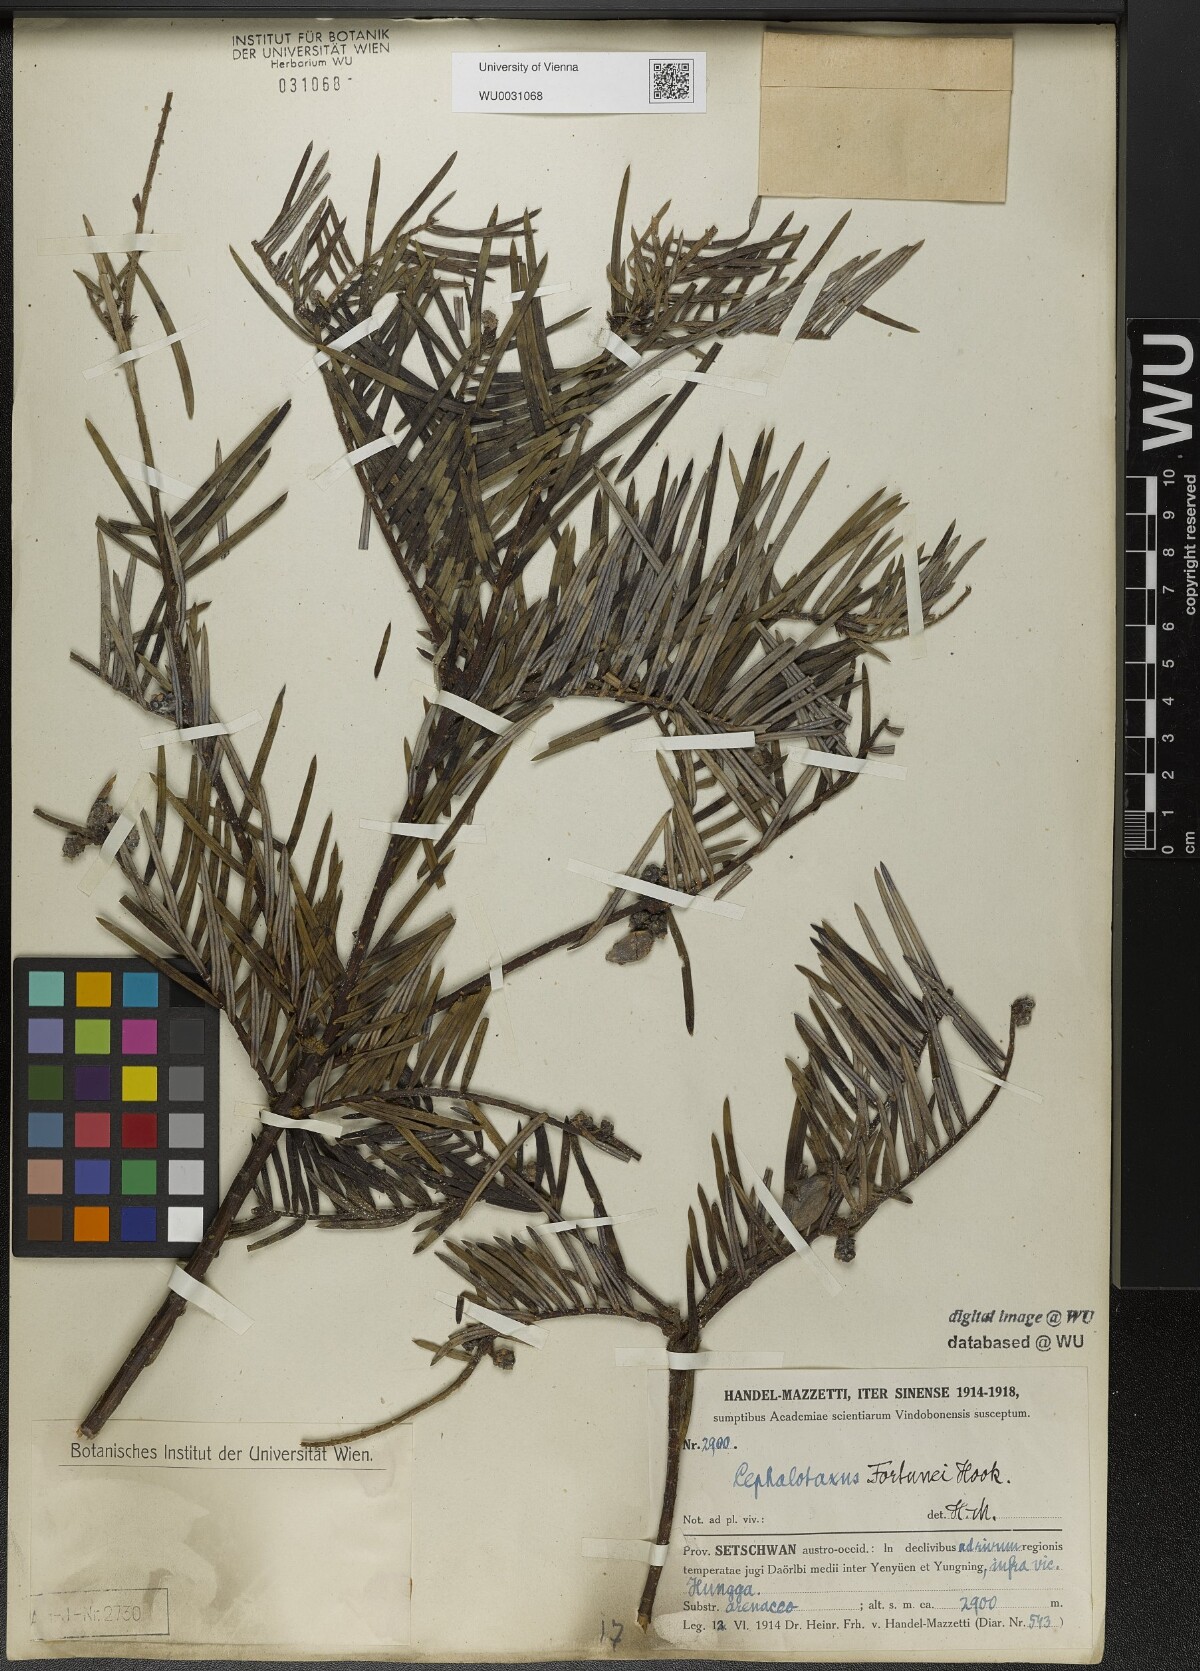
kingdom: Plantae
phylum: Tracheophyta
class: Pinopsida
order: Pinales
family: Cephalotaxaceae
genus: Cephalotaxus
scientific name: Cephalotaxus fortunei
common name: Chinese plum-yew
